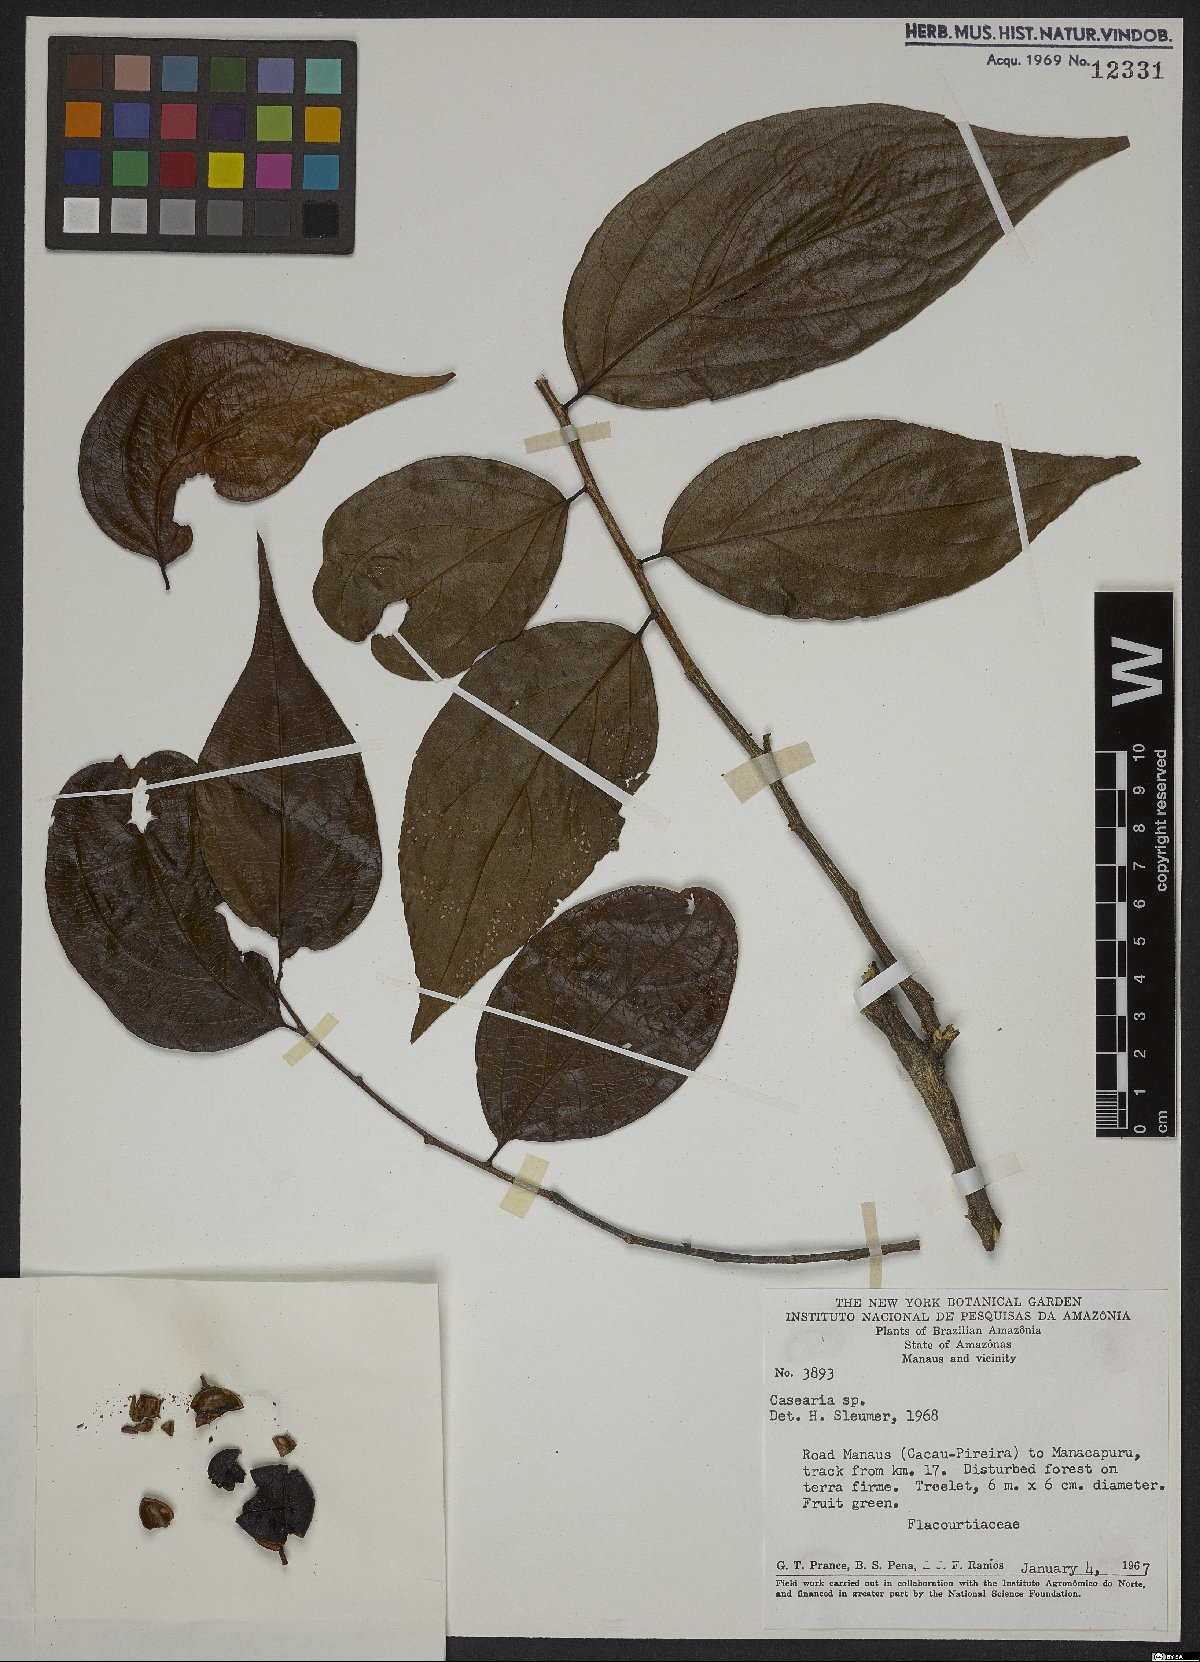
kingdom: Plantae
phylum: Tracheophyta
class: Magnoliopsida
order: Malpighiales
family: Salicaceae
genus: Casearia
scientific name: Casearia
